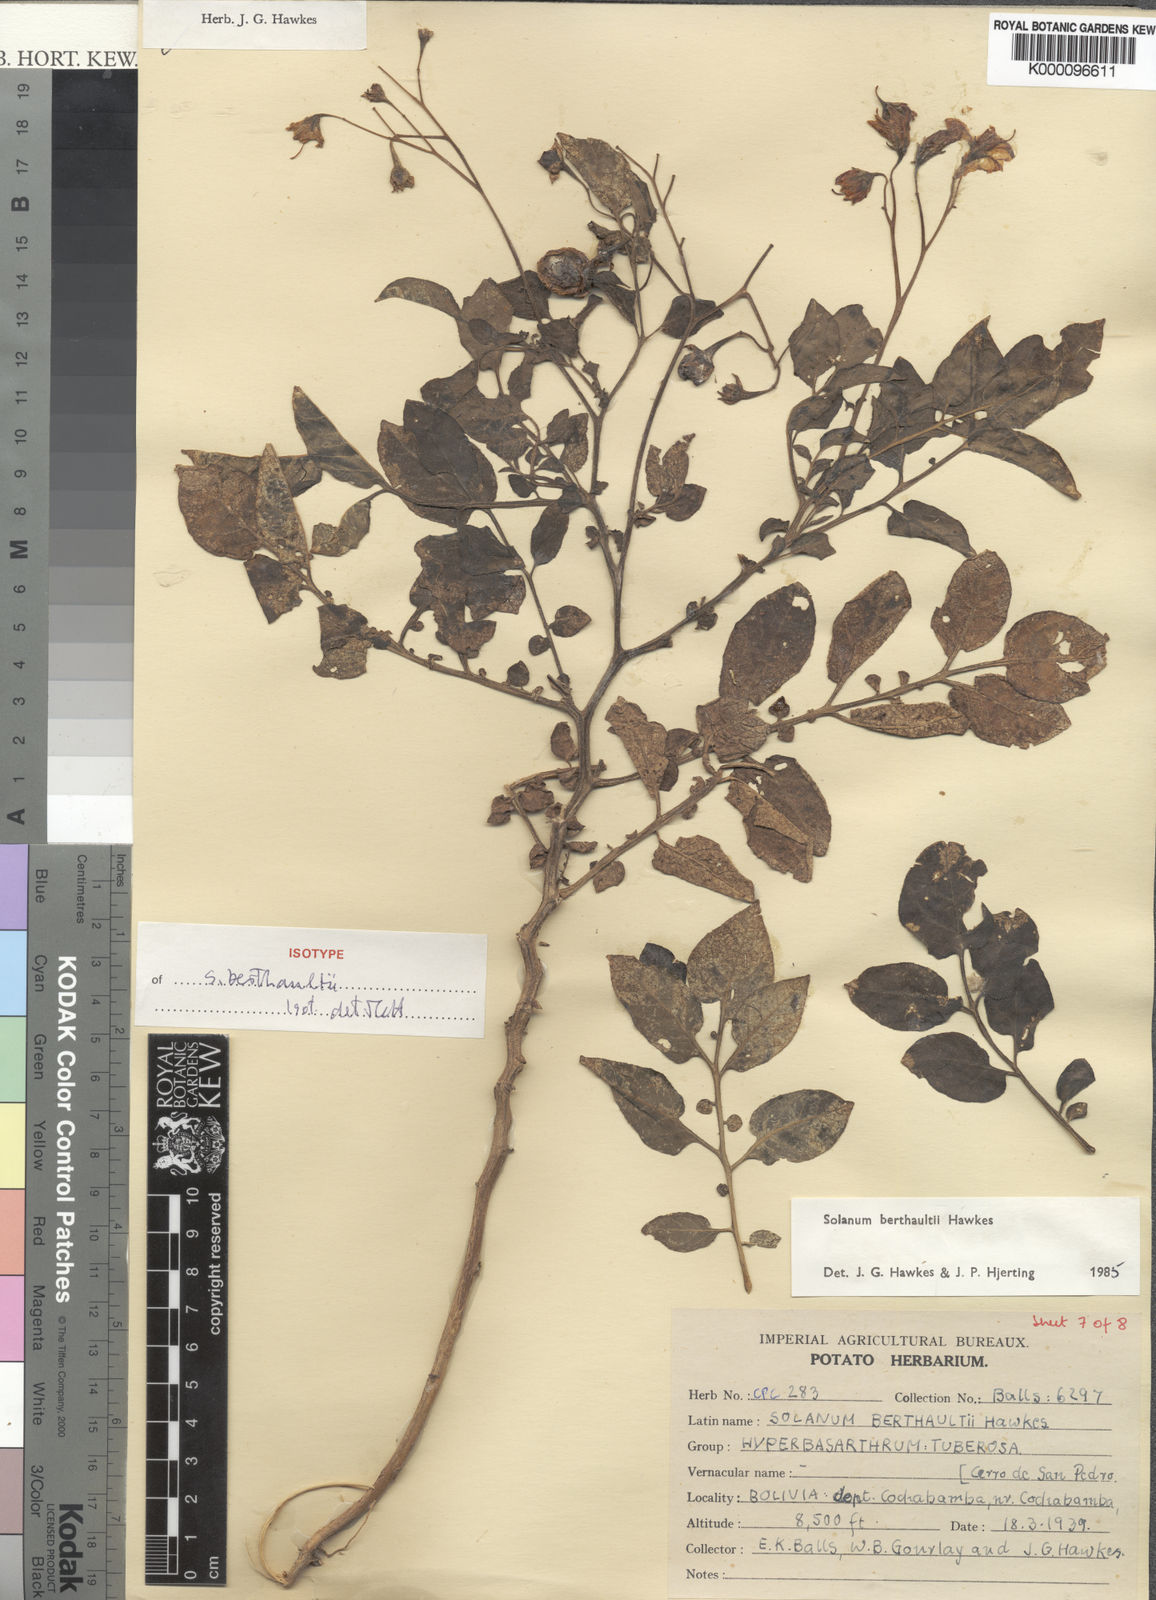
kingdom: Plantae
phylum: Tracheophyta
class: Magnoliopsida
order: Solanales
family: Solanaceae
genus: Solanum
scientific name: Solanum berthaultii
